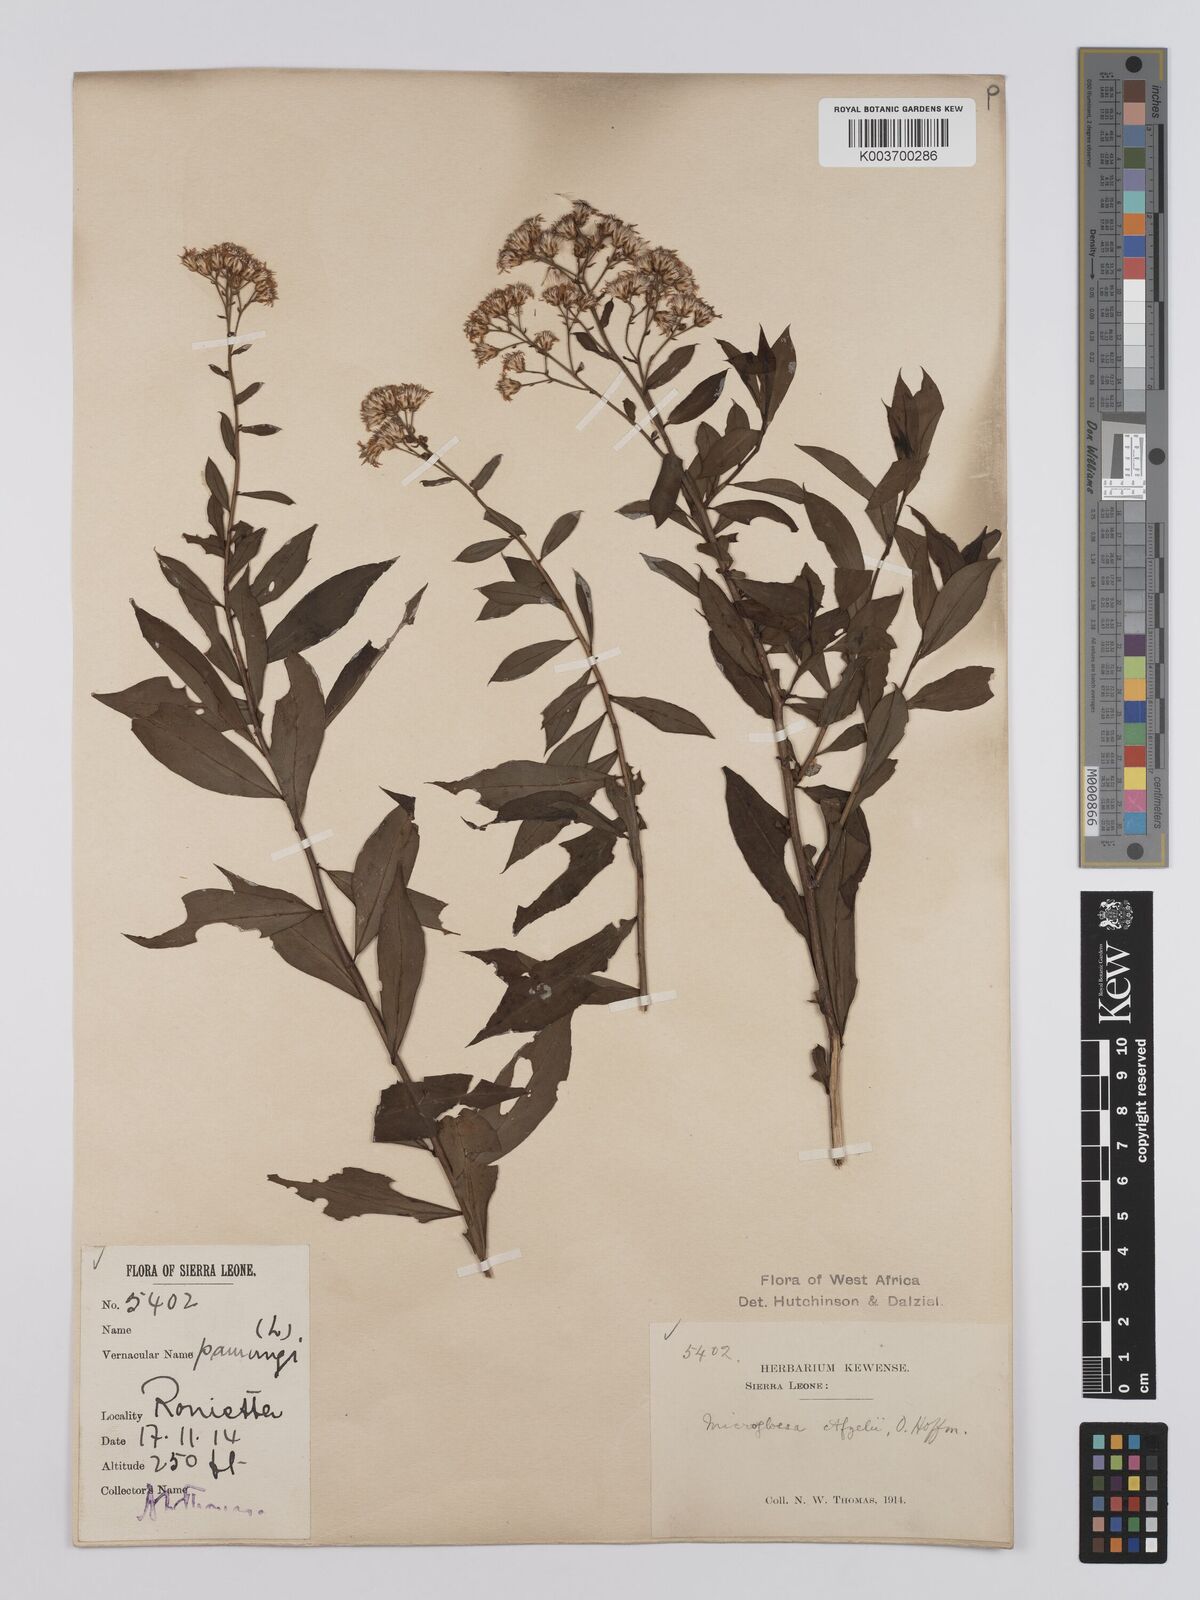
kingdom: Plantae
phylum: Tracheophyta
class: Magnoliopsida
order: Asterales
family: Asteraceae
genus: Microglossa
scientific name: Microglossa afzelii
